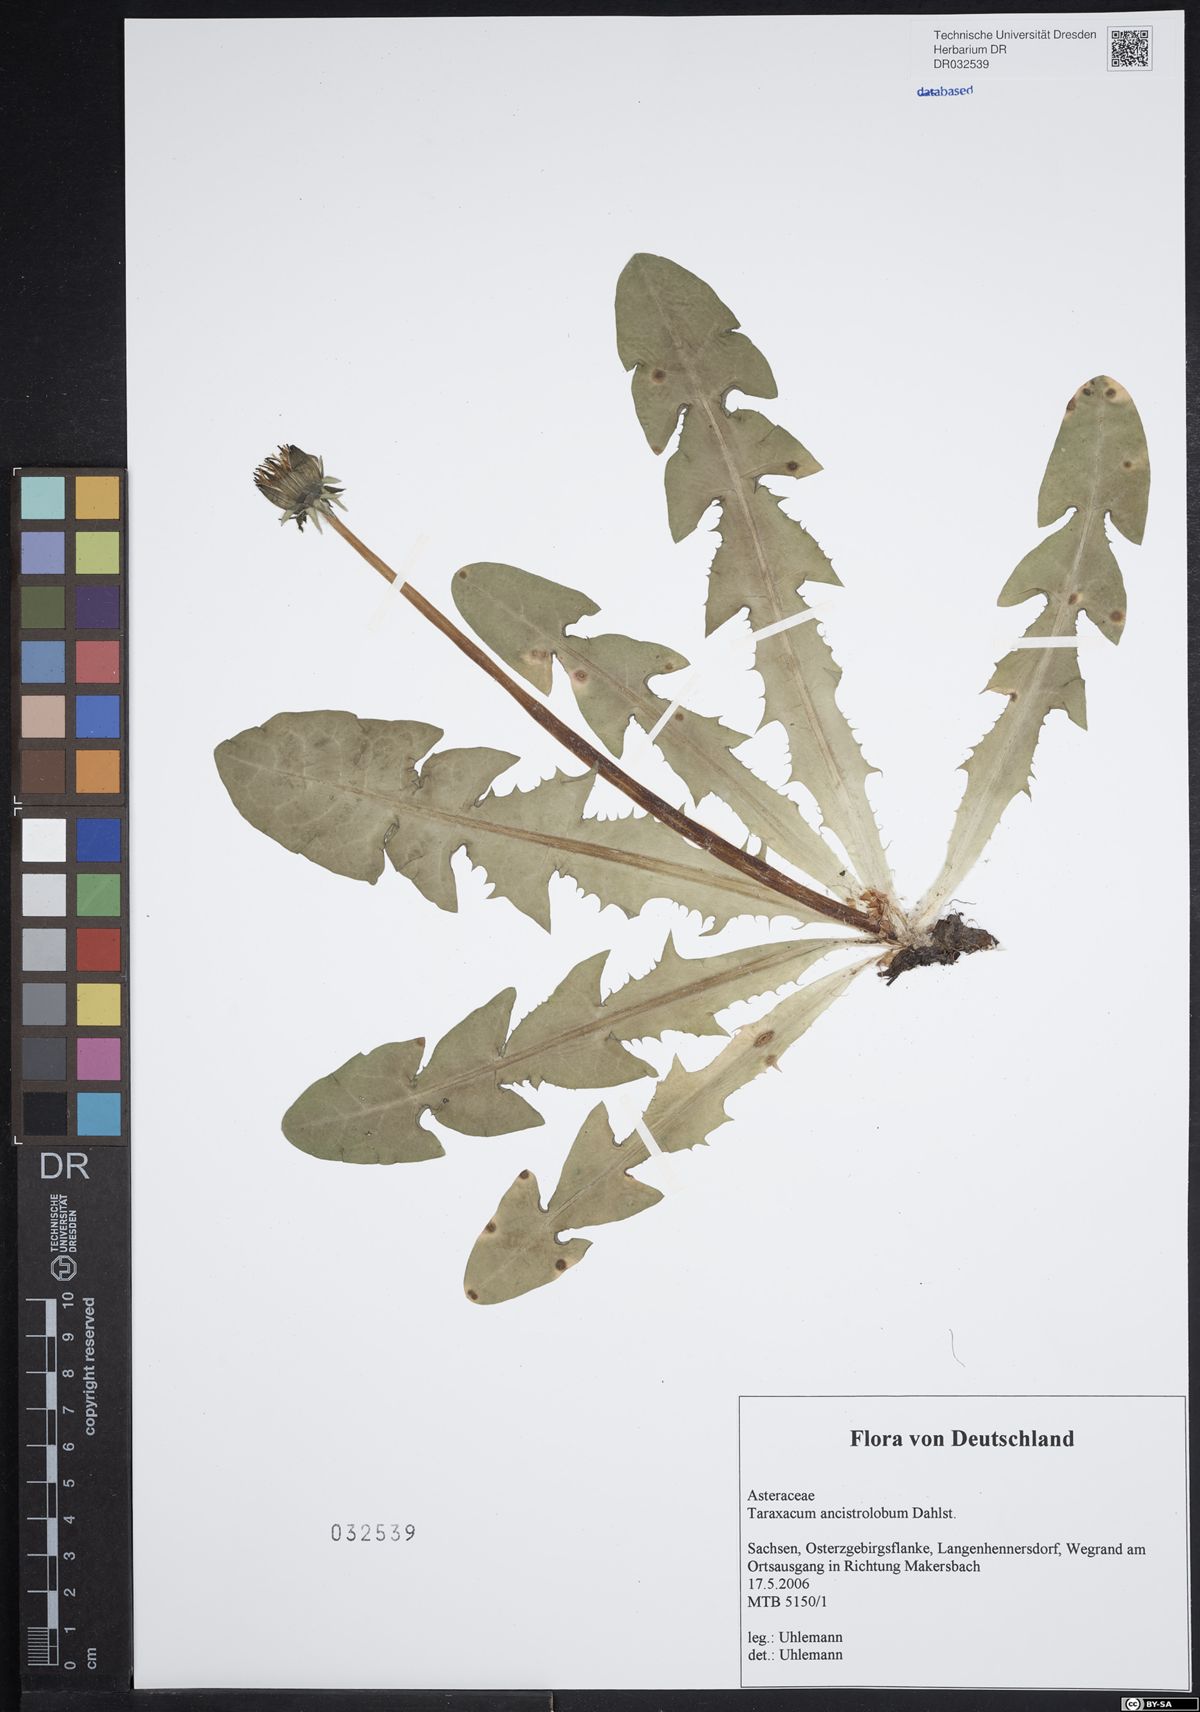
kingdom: Plantae
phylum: Tracheophyta
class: Magnoliopsida
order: Asterales
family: Asteraceae
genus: Taraxacum
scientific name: Taraxacum ancistrolobum
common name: Few-lobed dandelion
